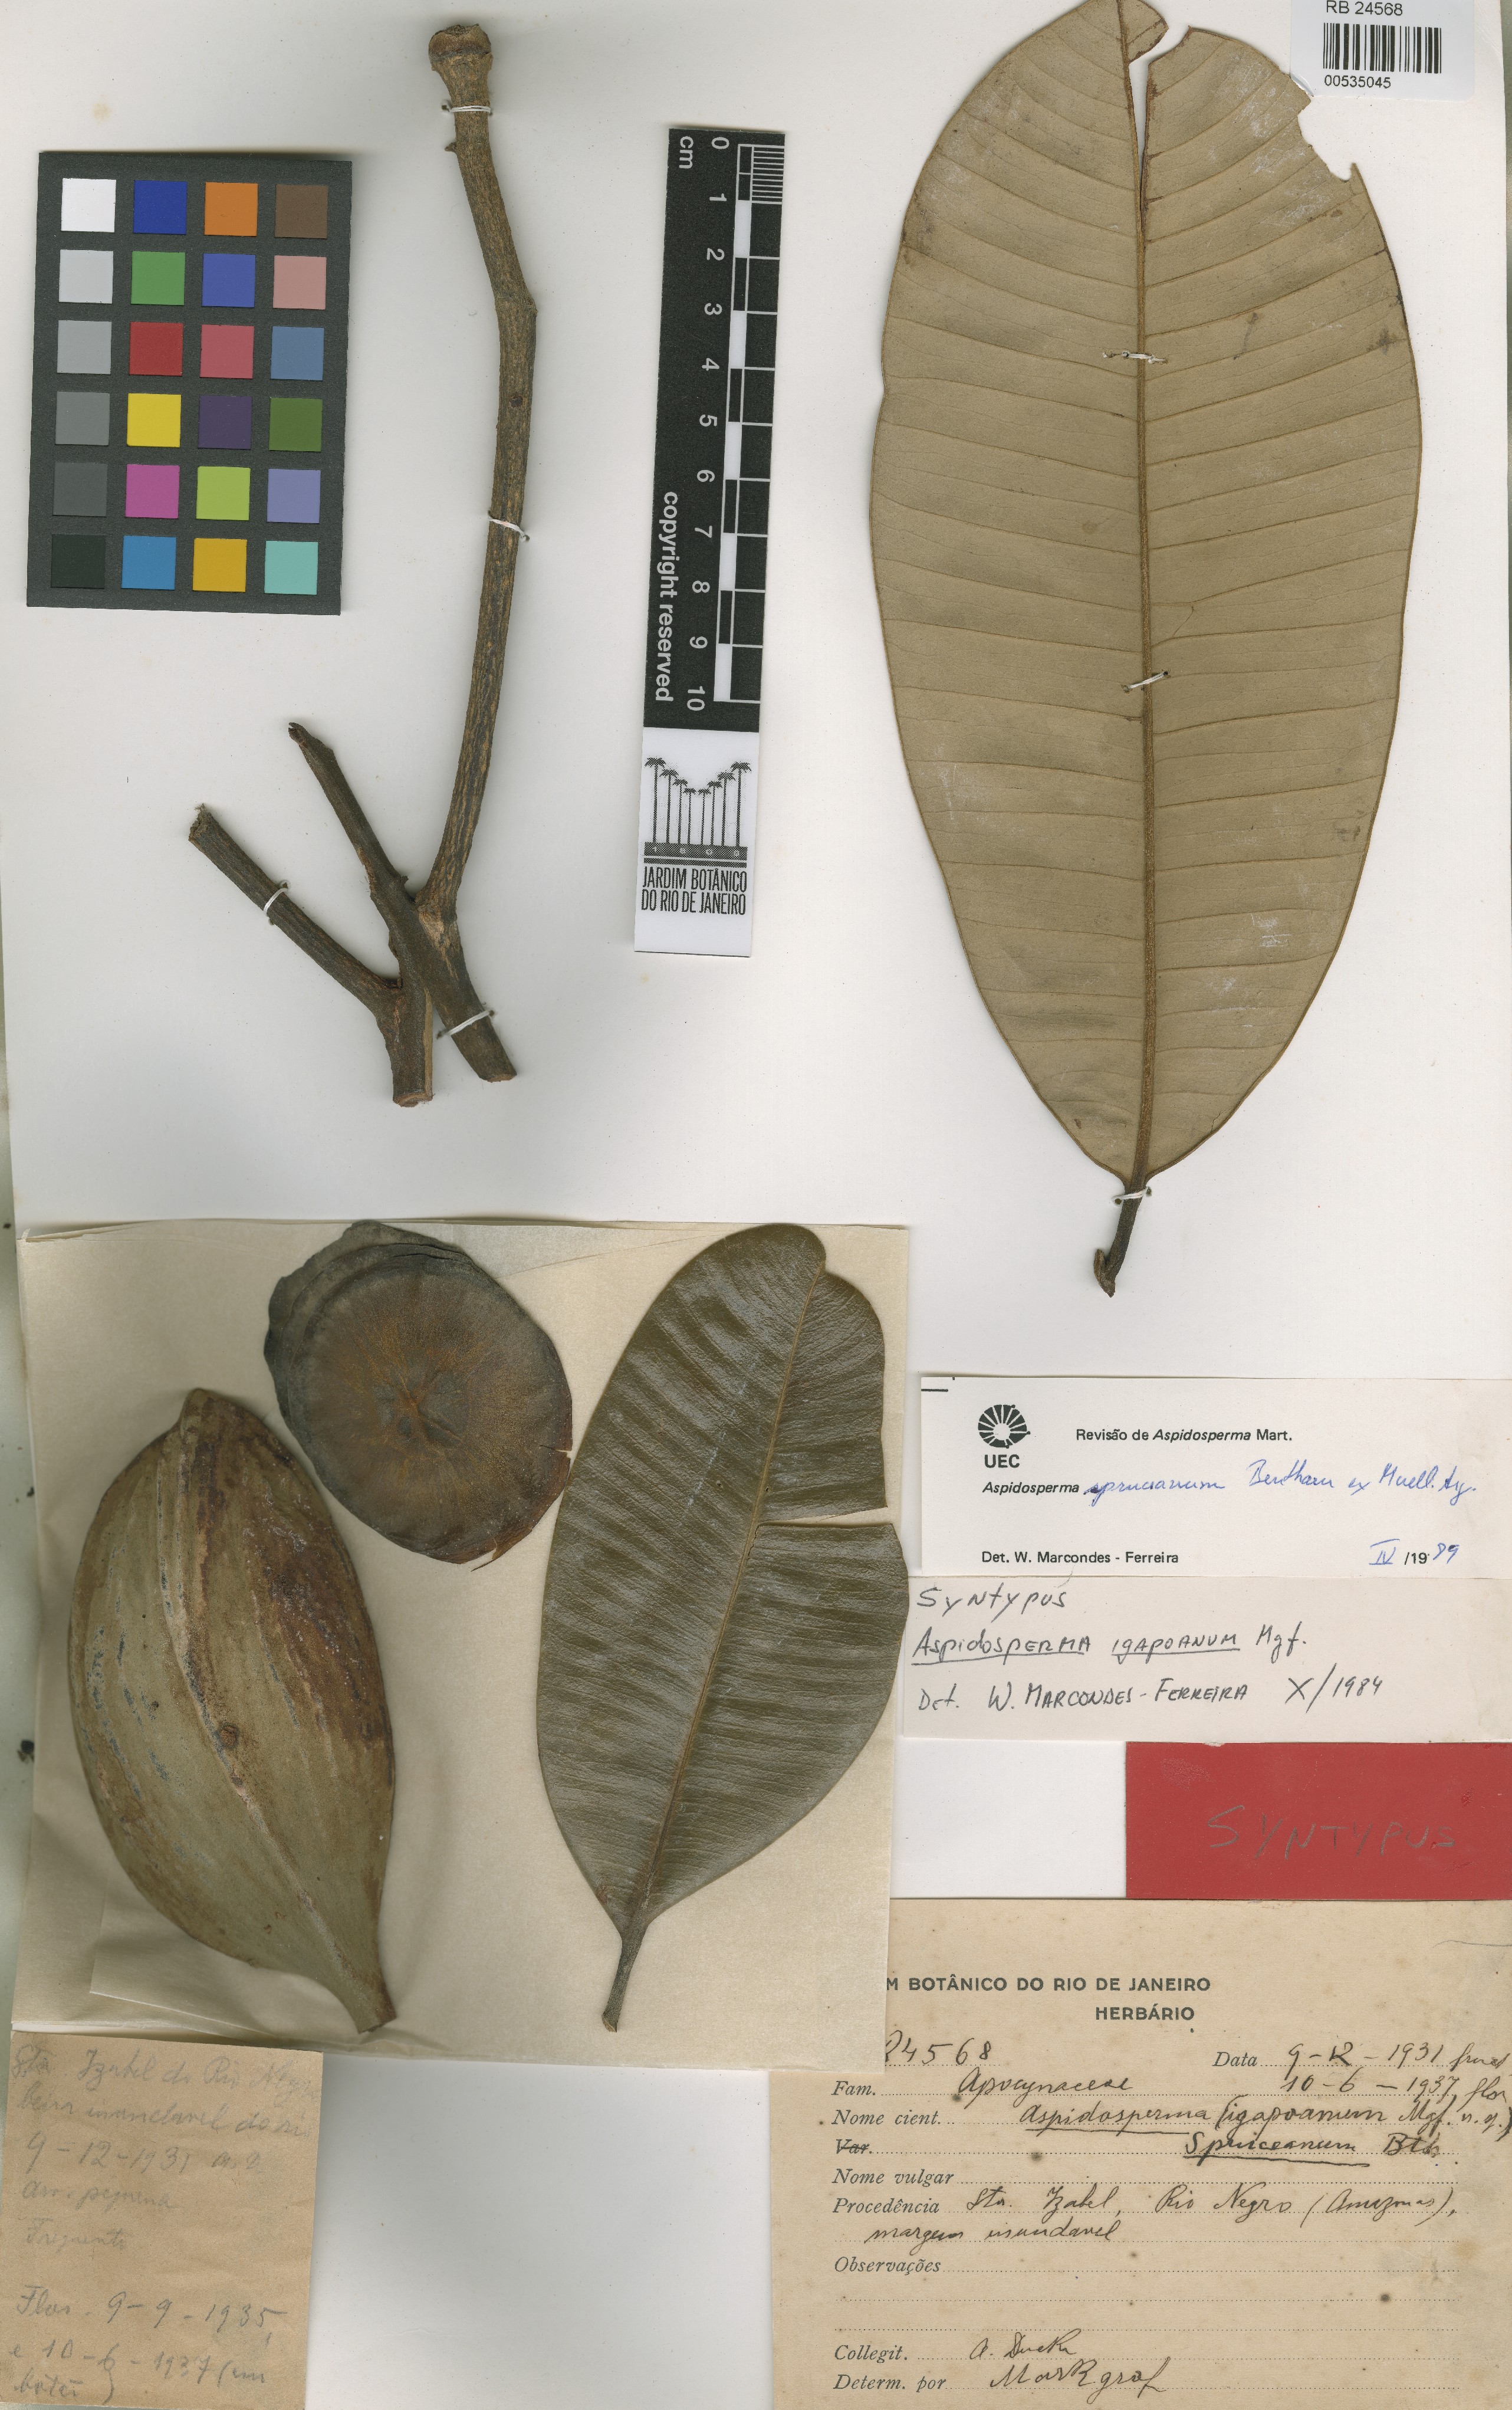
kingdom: Plantae
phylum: Tracheophyta
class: Magnoliopsida
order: Gentianales
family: Apocynaceae
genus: Aspidosperma
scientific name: Aspidosperma spruceanum
